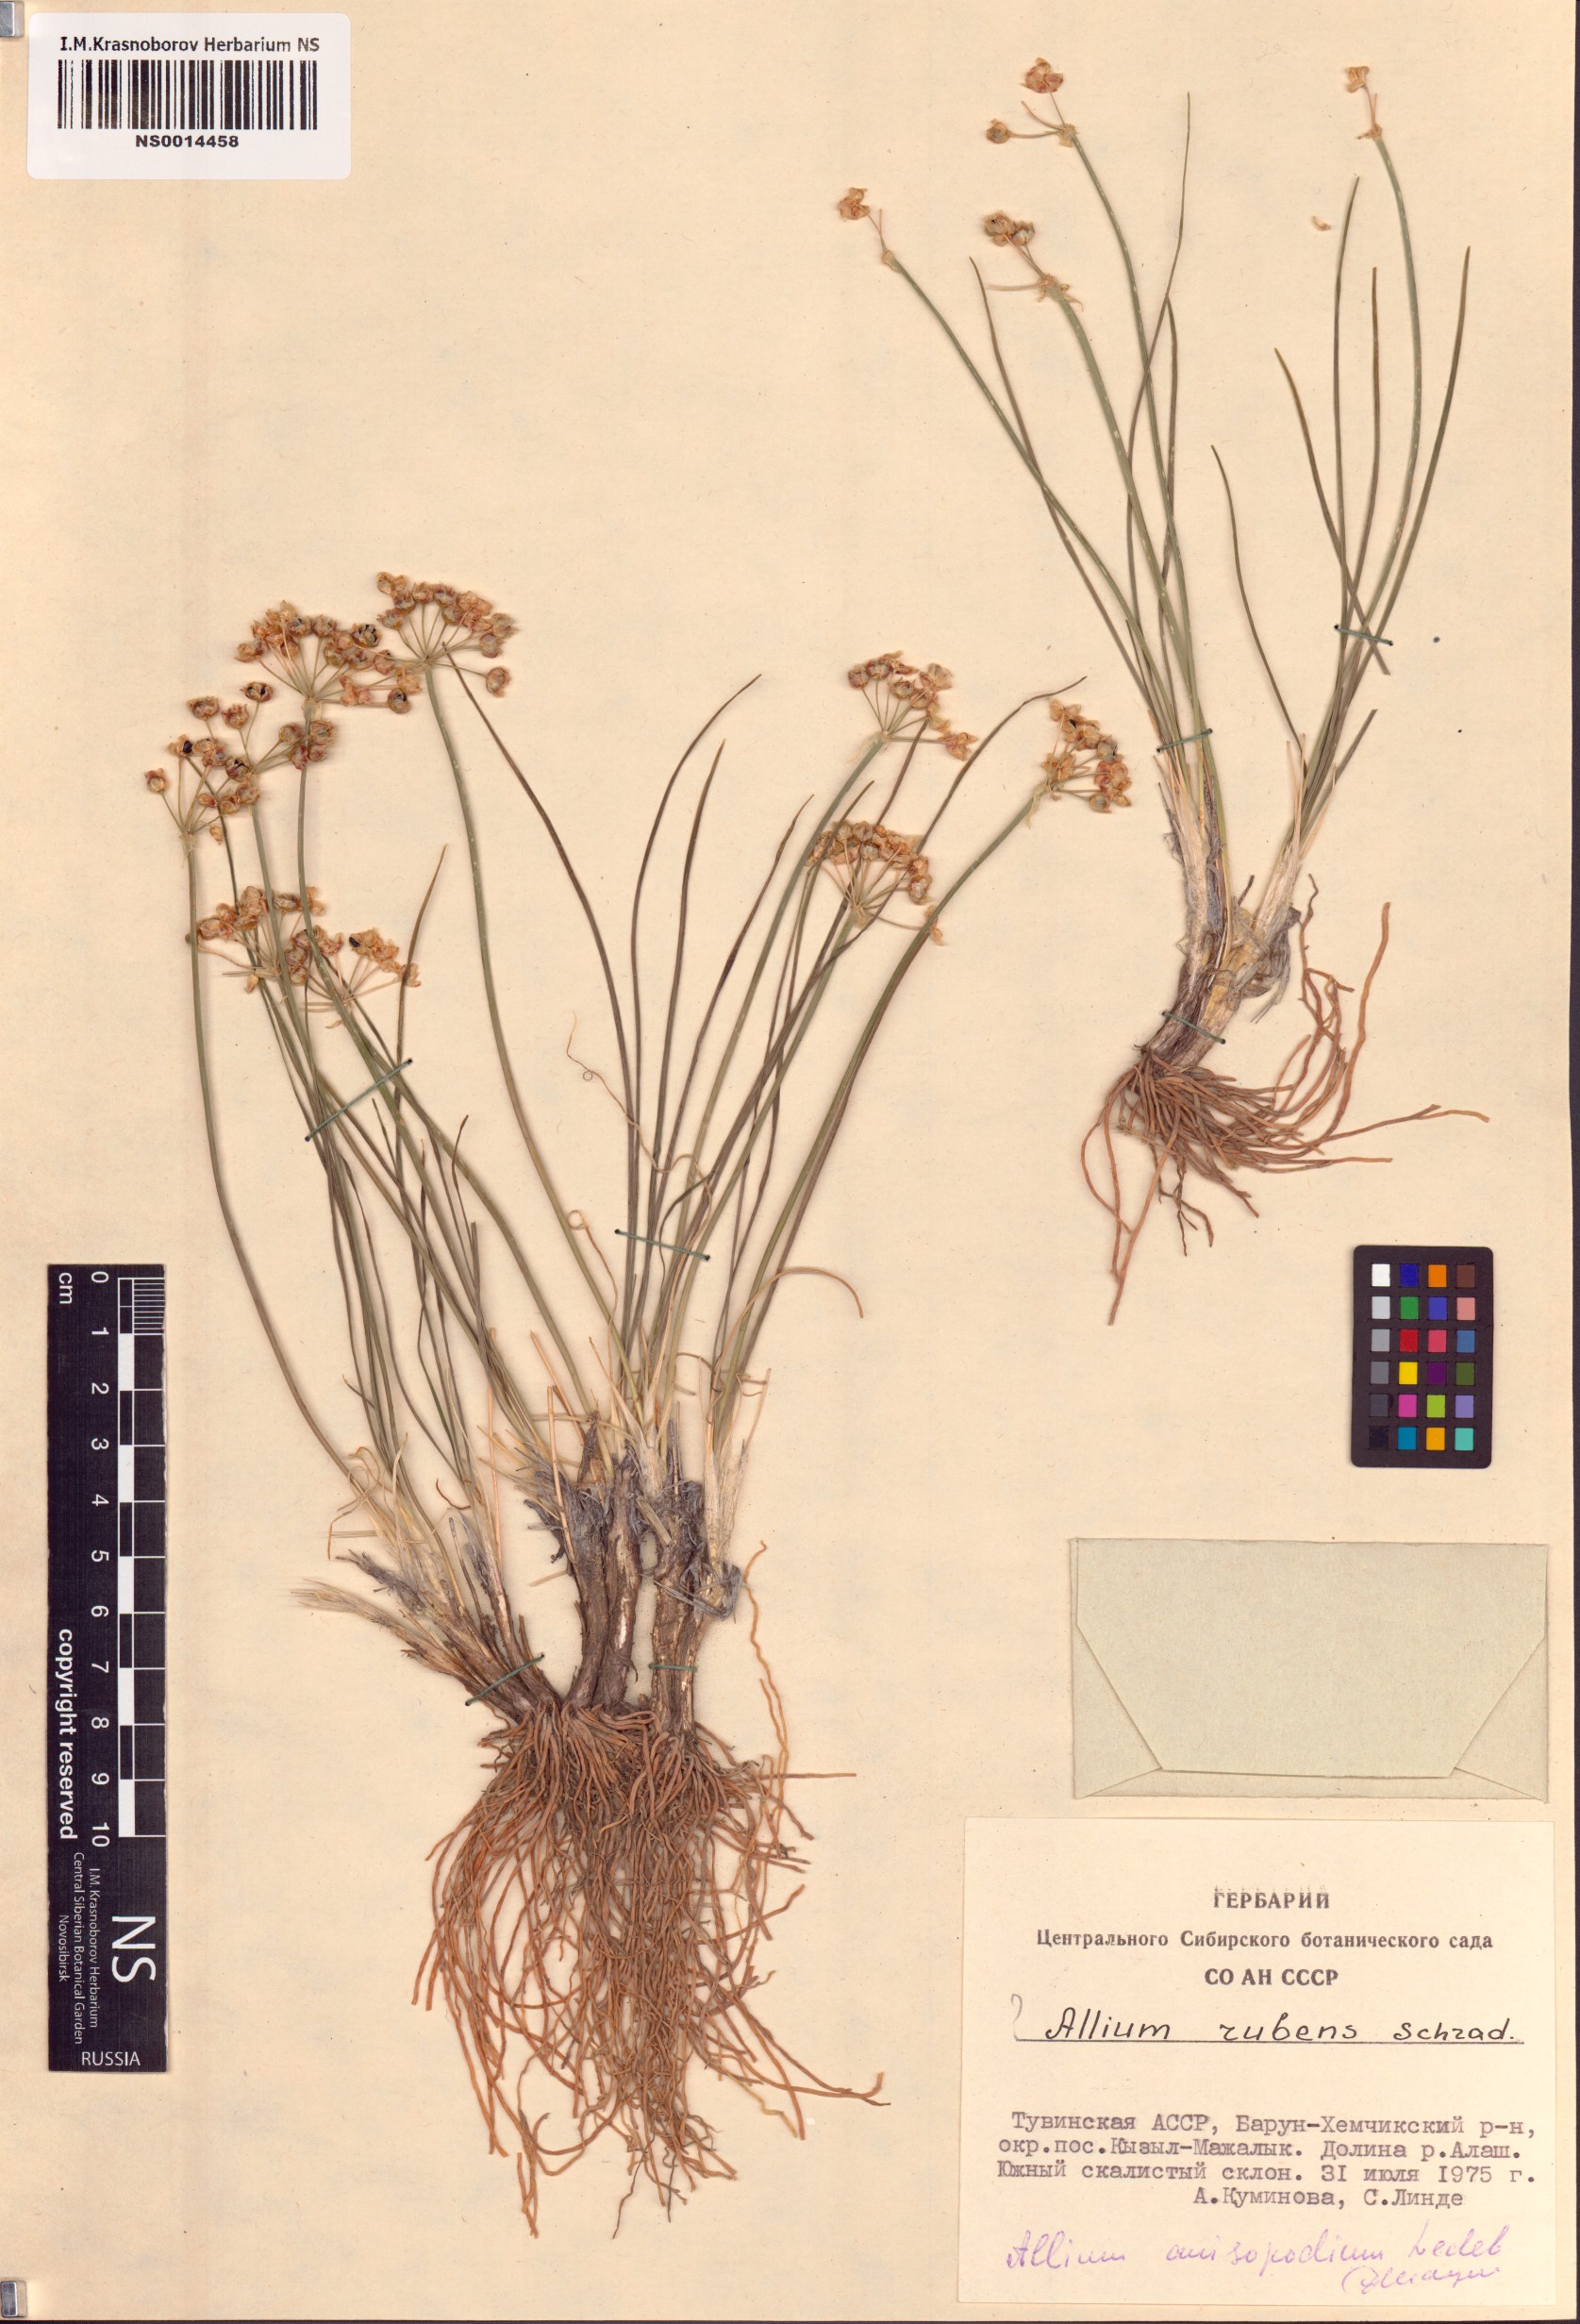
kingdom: Plantae
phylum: Tracheophyta
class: Liliopsida
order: Asparagales
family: Amaryllidaceae
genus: Allium
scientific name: Allium anisopodium
